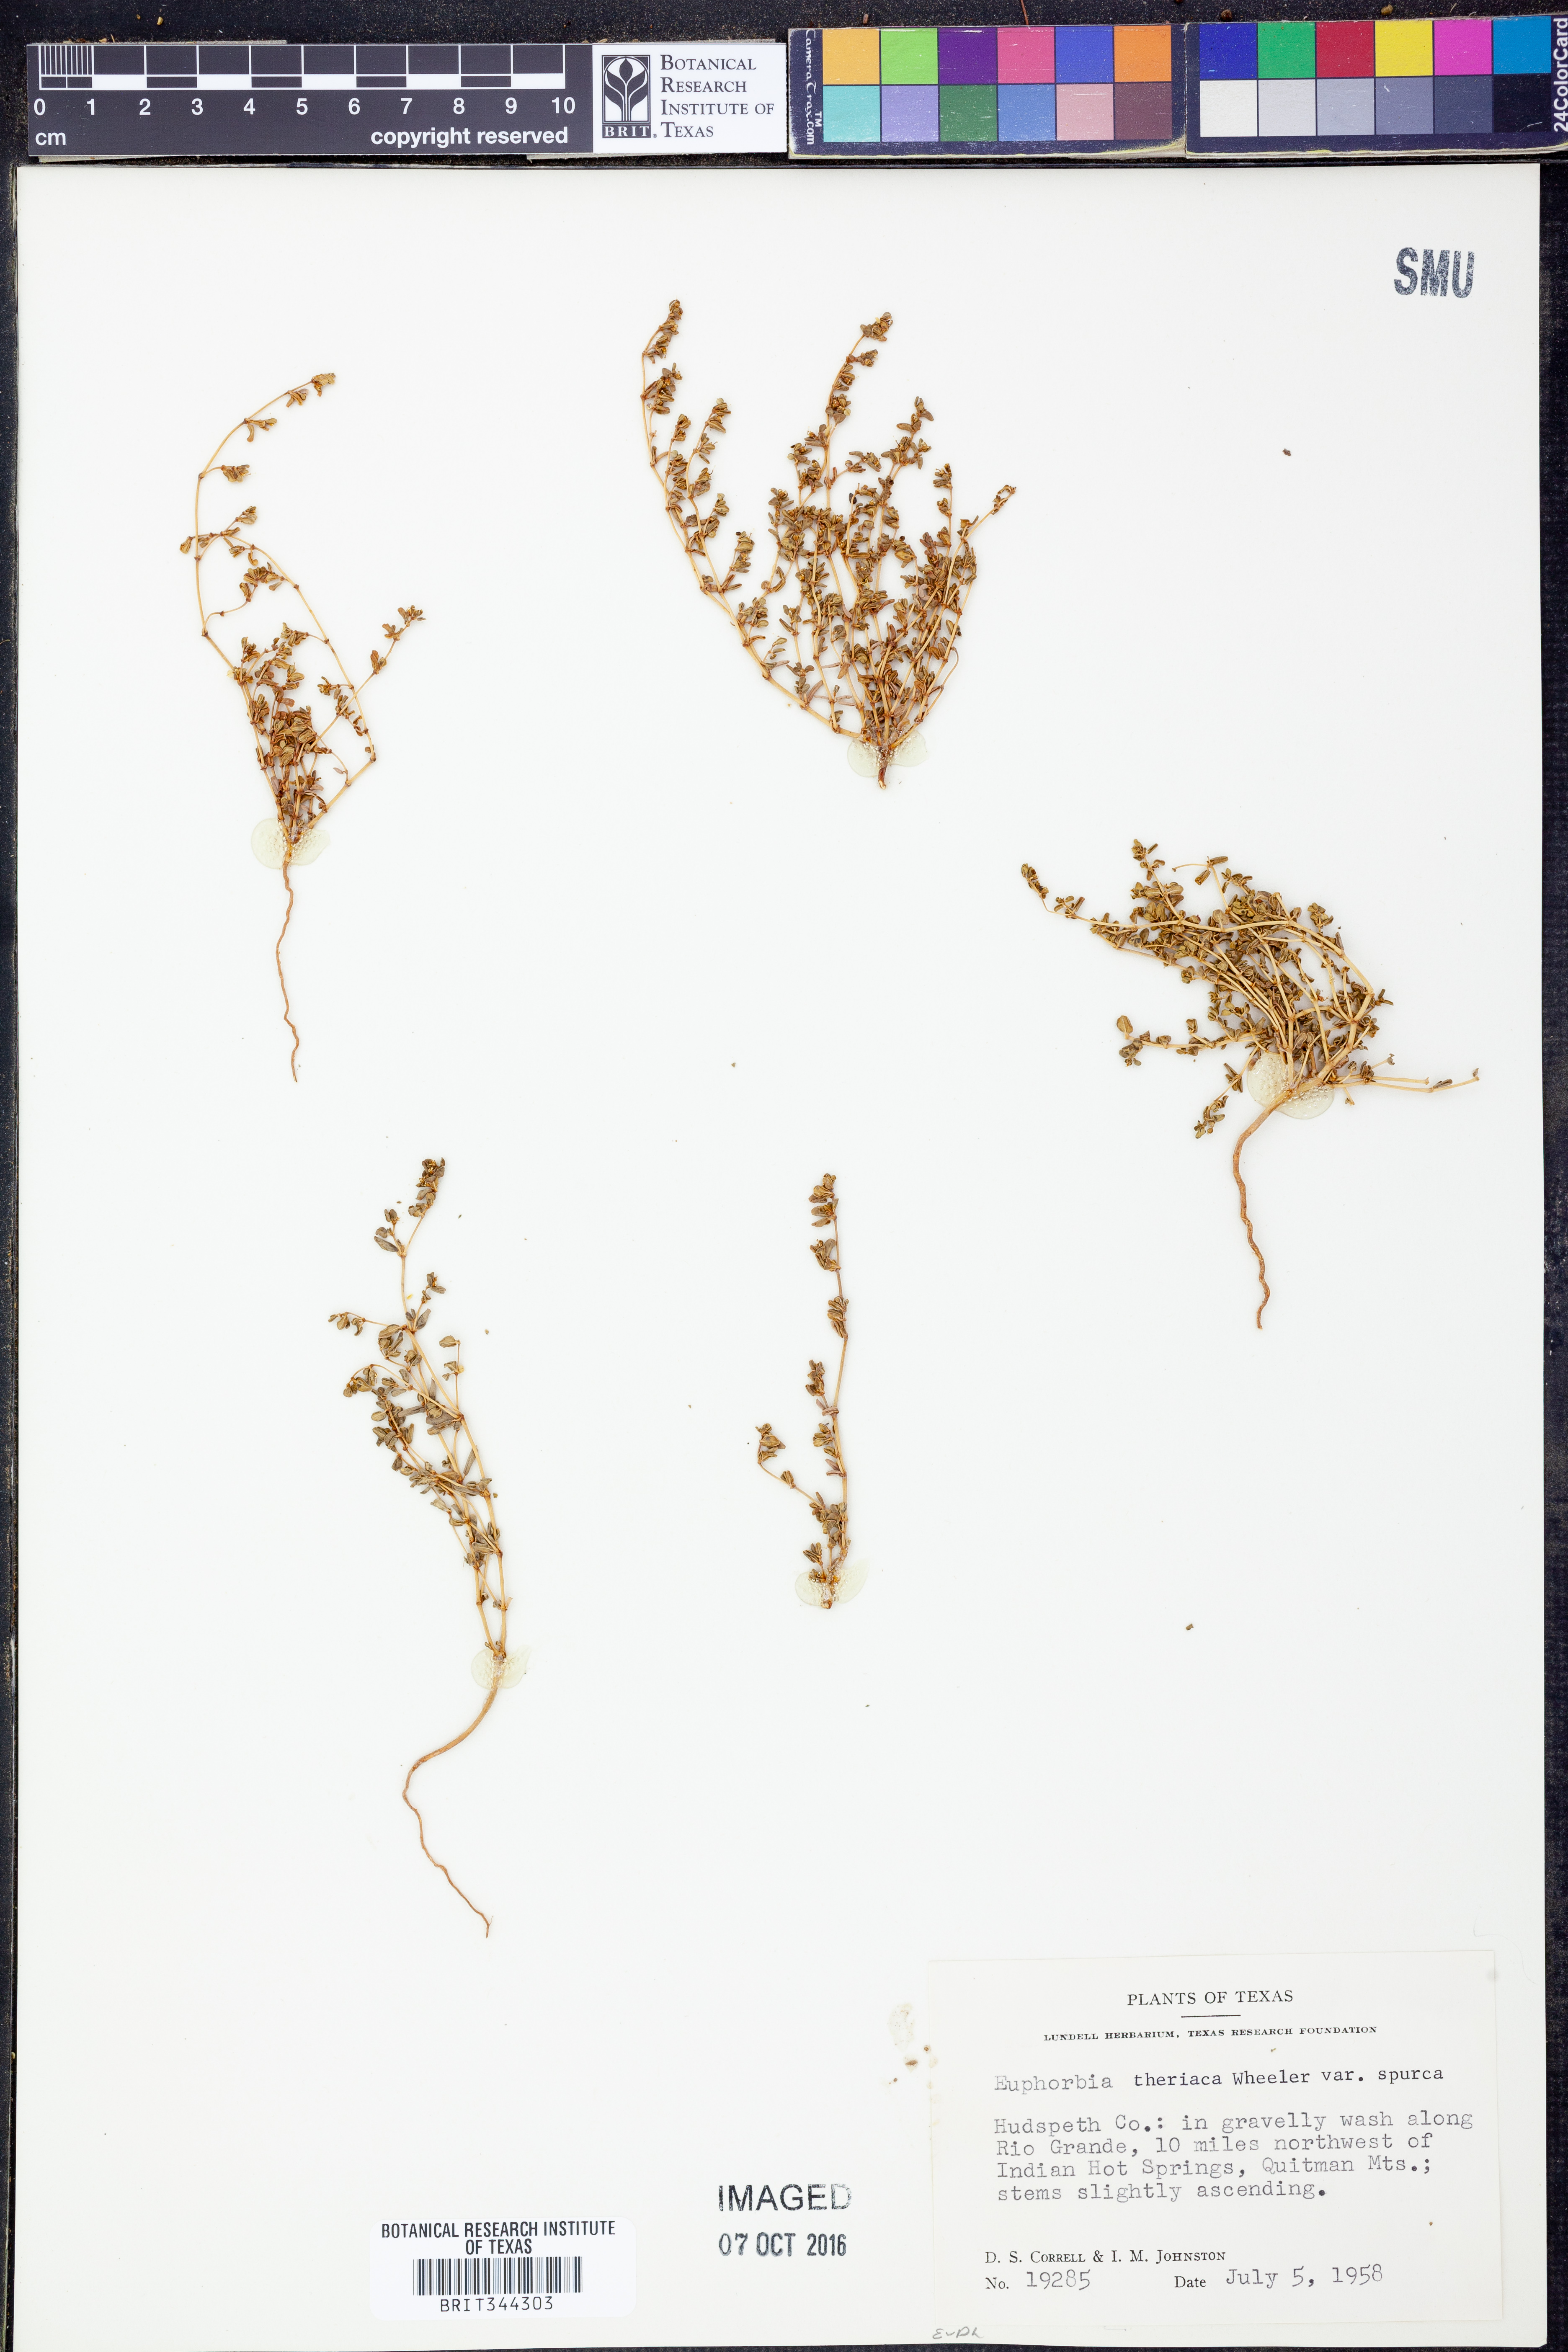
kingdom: Plantae
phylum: Tracheophyta
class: Magnoliopsida
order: Malpighiales
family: Euphorbiaceae
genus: Euphorbia
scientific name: Euphorbia spurca
